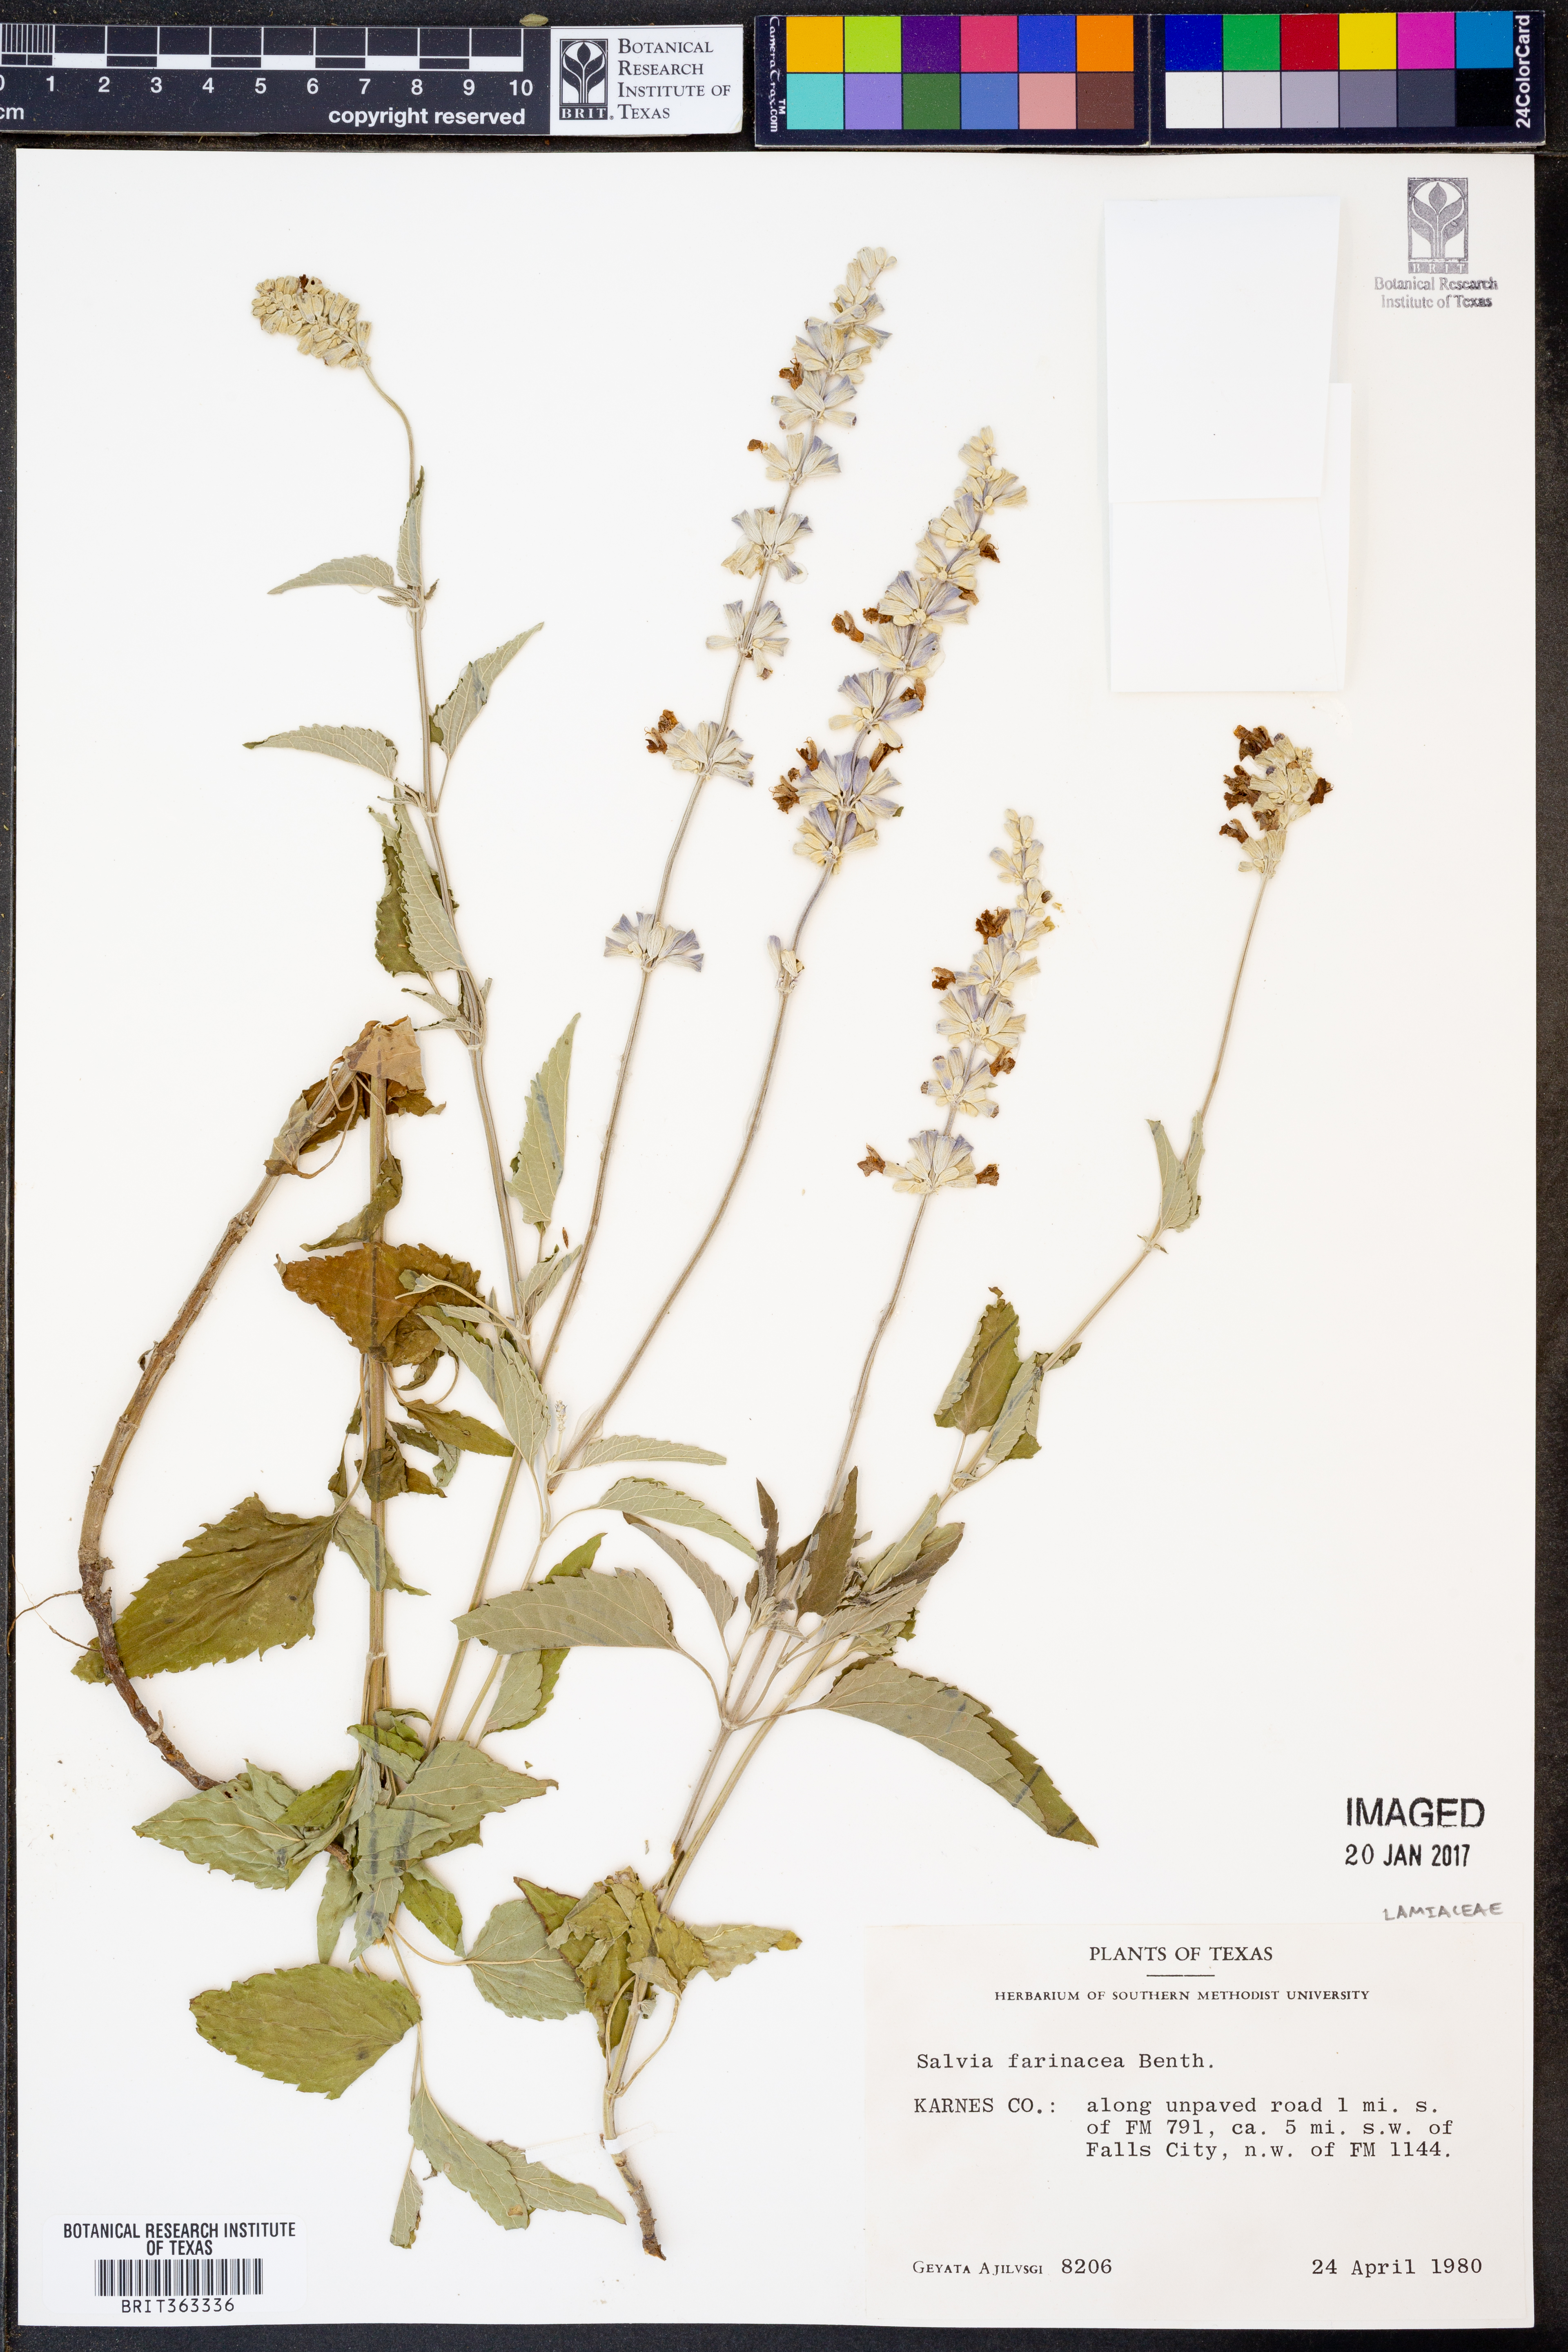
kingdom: Plantae
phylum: Tracheophyta
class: Magnoliopsida
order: Lamiales
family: Lamiaceae
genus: Salvia
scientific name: Salvia farinacea
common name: Mealy sage
